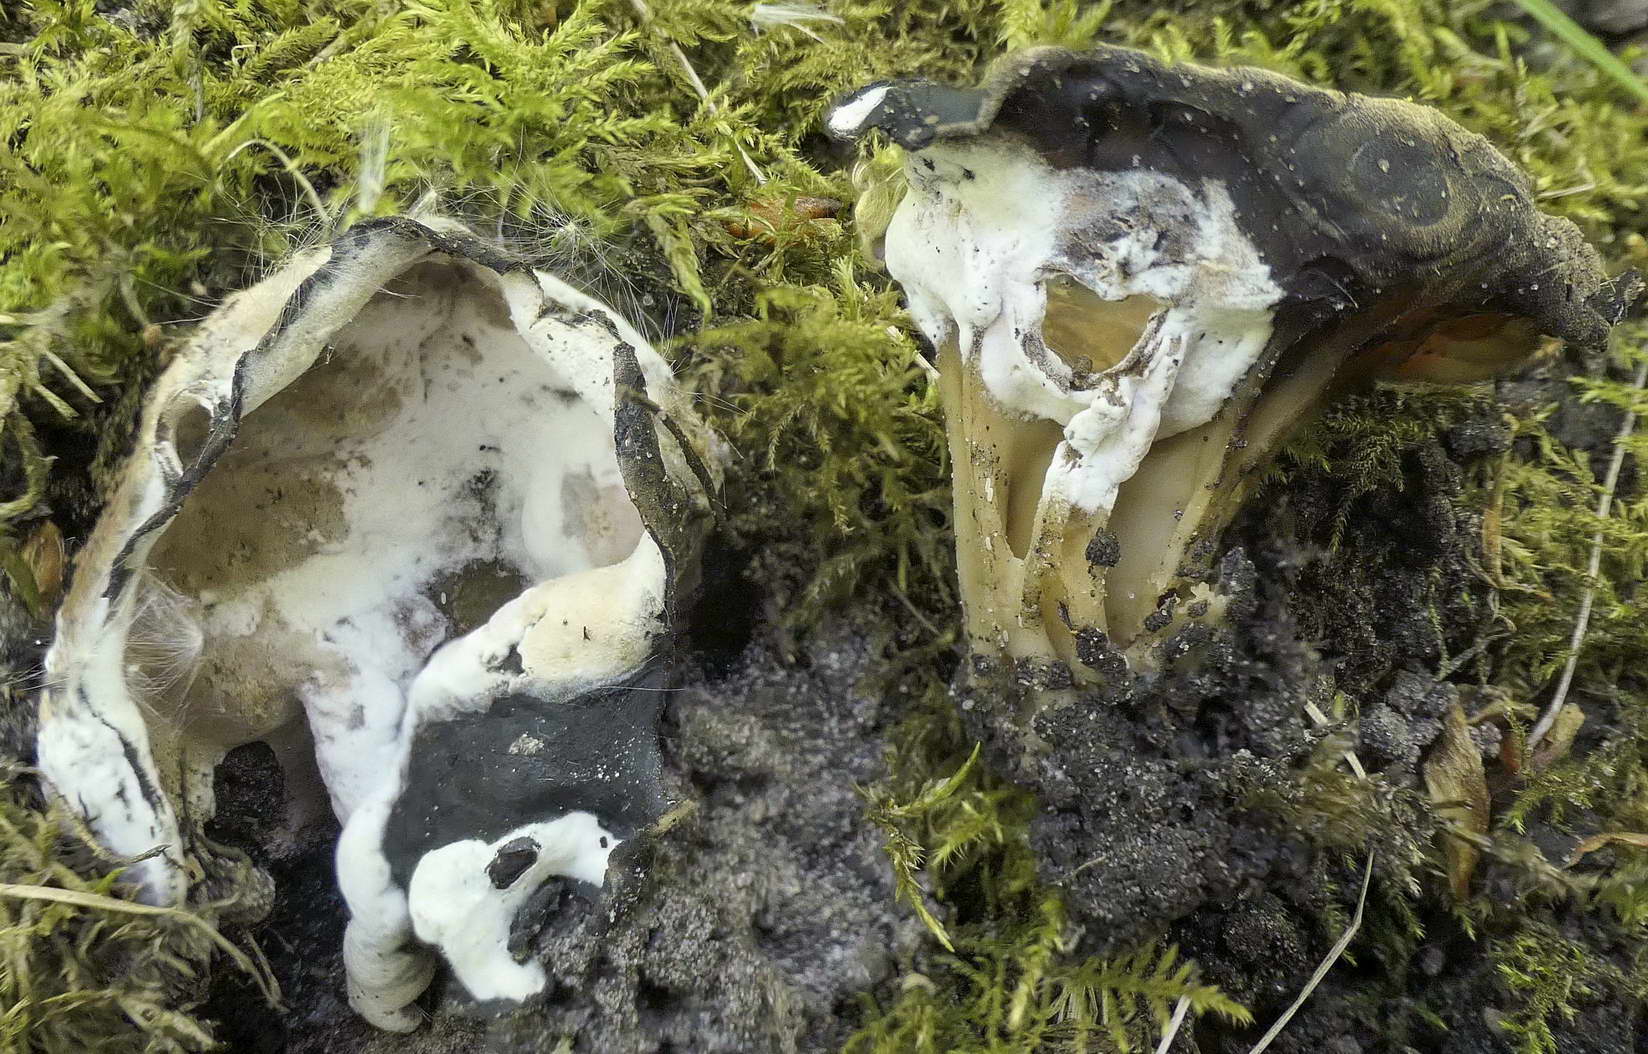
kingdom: Fungi
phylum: Ascomycota
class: Sordariomycetes
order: Hypocreales
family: Hypocreaceae
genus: Hypomyces
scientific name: Hypomyces cervinus
